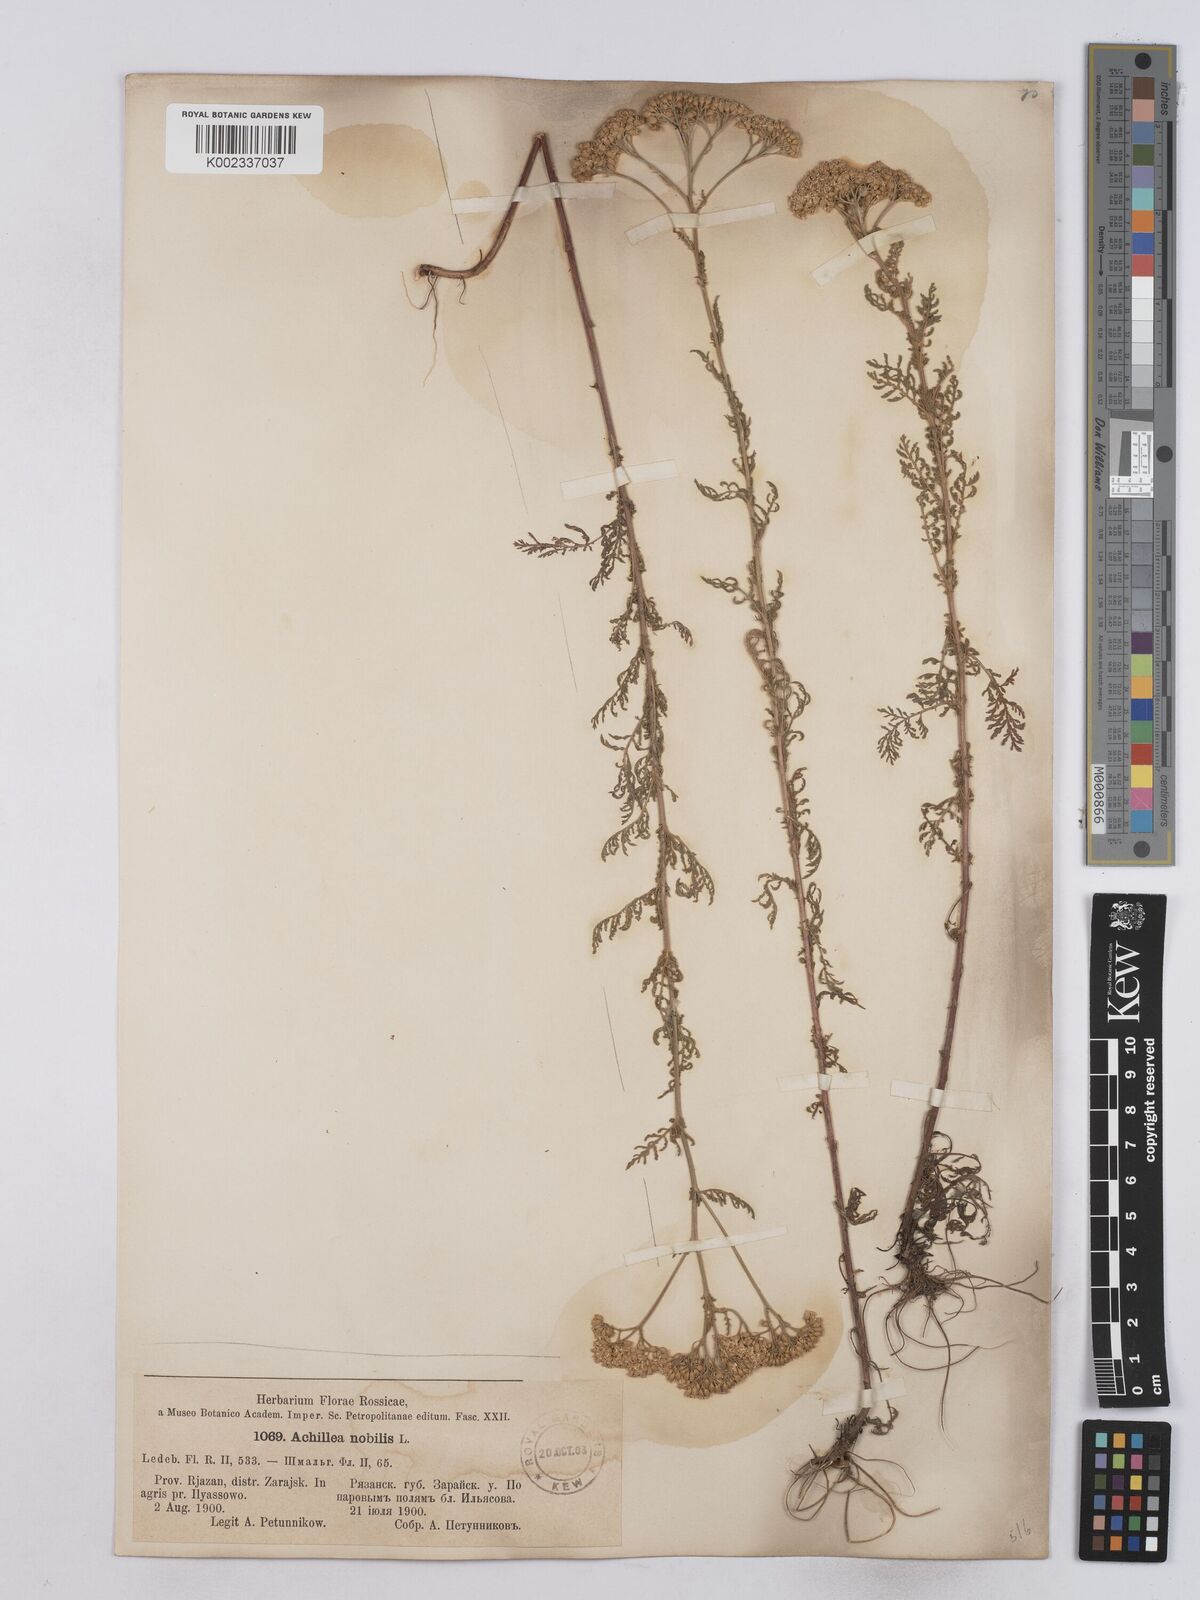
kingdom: Plantae
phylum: Tracheophyta
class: Magnoliopsida
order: Asterales
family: Asteraceae
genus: Achillea
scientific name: Achillea nobilis
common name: Noble yarrow
